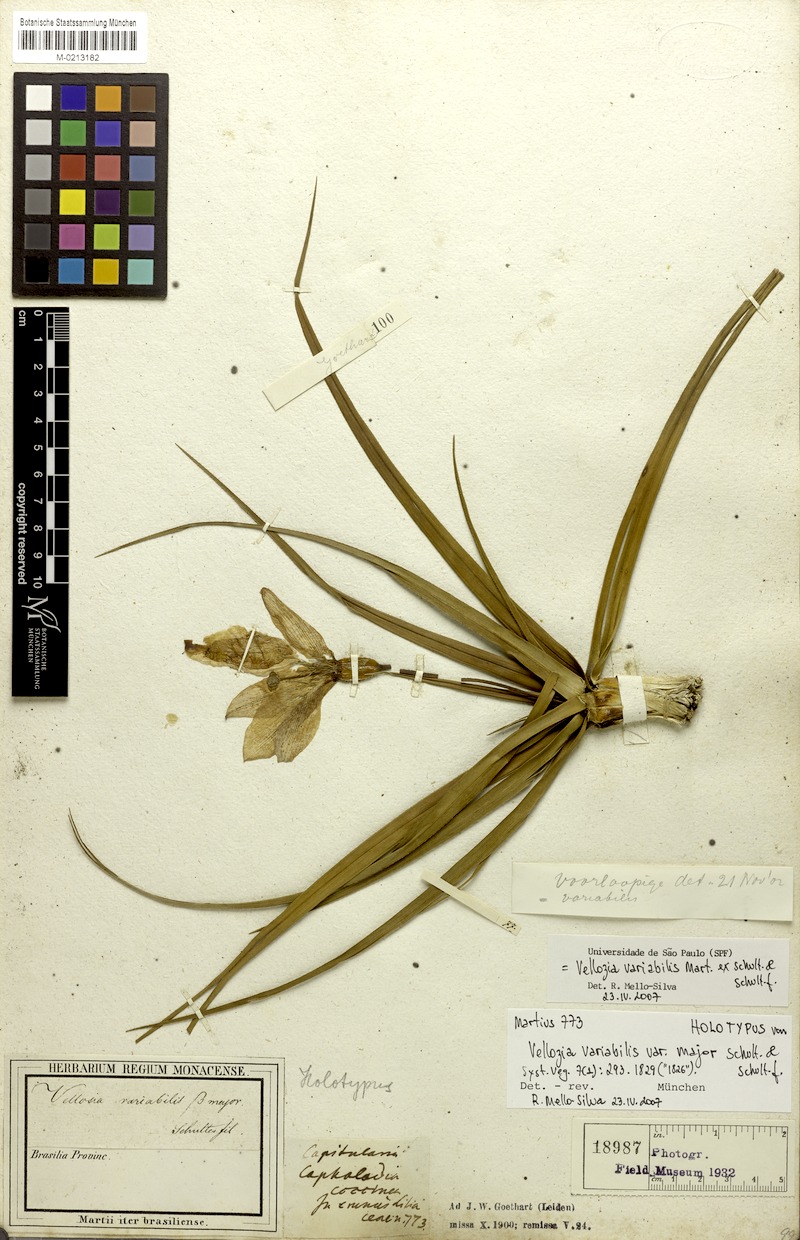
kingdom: Plantae
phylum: Tracheophyta
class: Liliopsida
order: Pandanales
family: Velloziaceae
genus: Vellozia
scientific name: Vellozia variabilis
